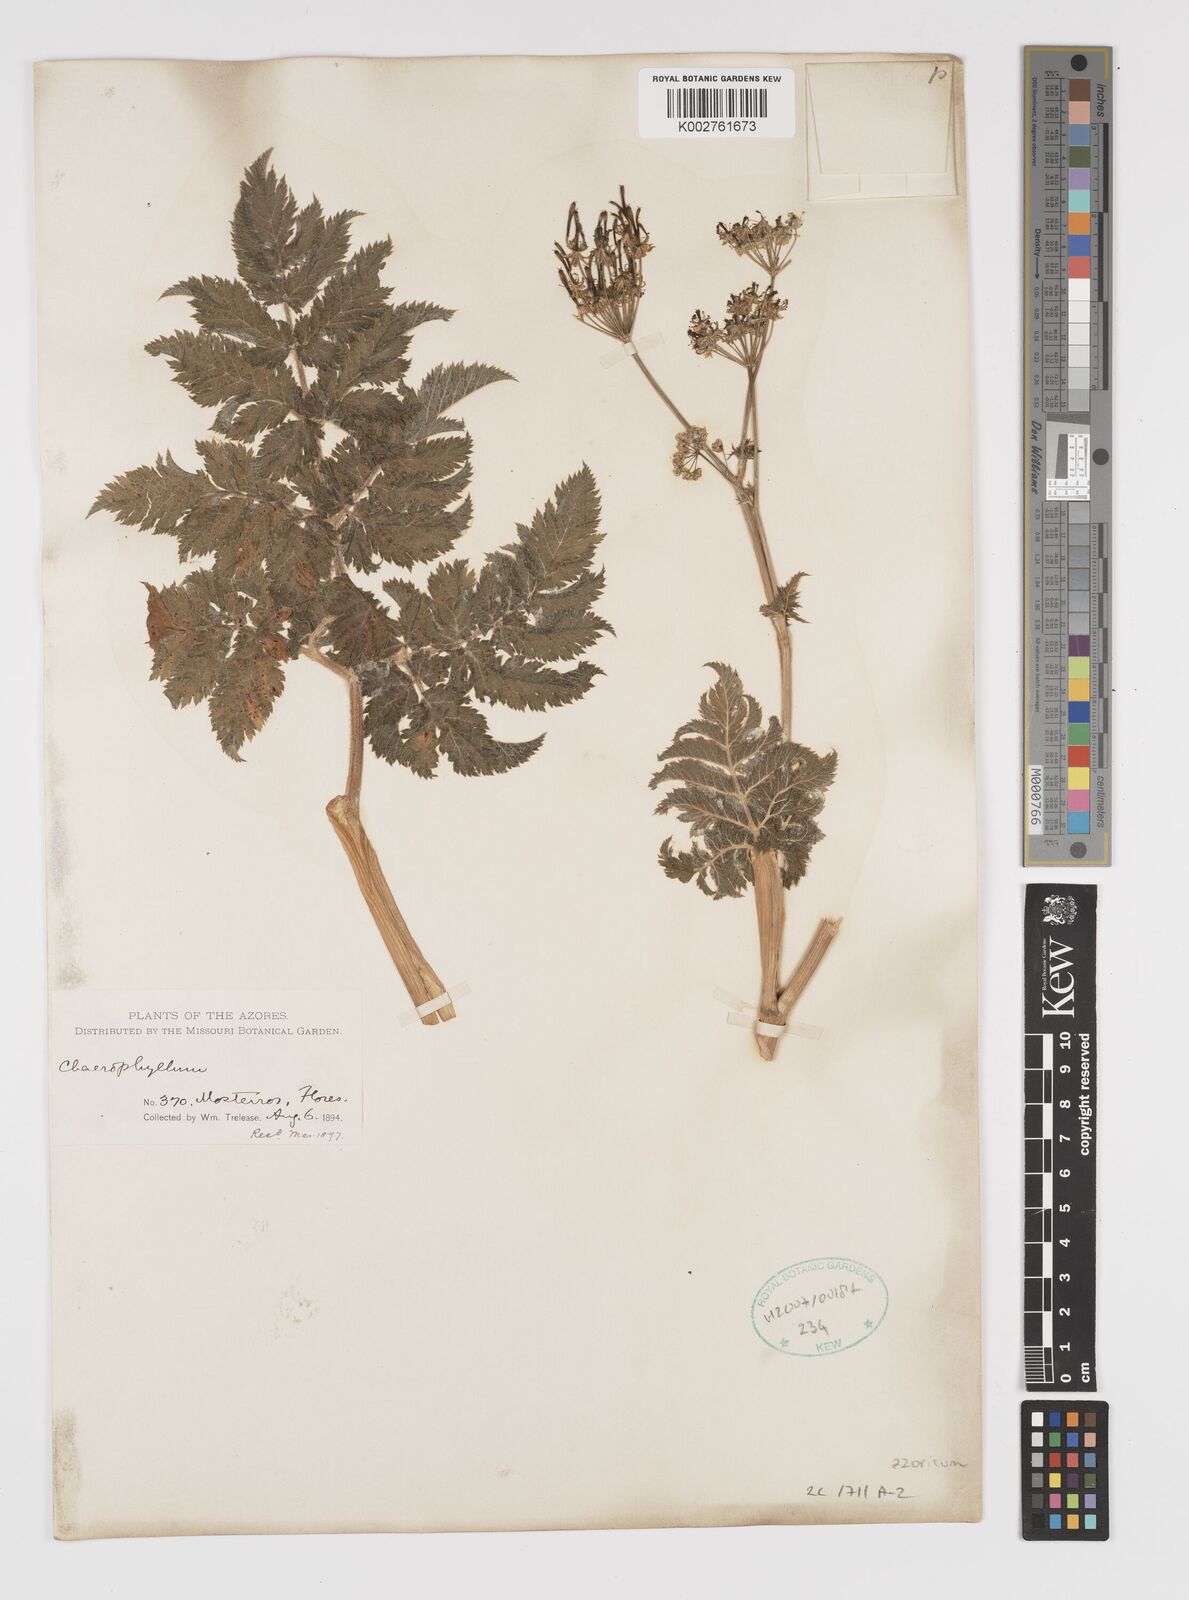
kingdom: Plantae
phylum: Tracheophyta
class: Magnoliopsida
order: Apiales
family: Apiaceae
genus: Chaerophyllum
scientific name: Chaerophyllum
